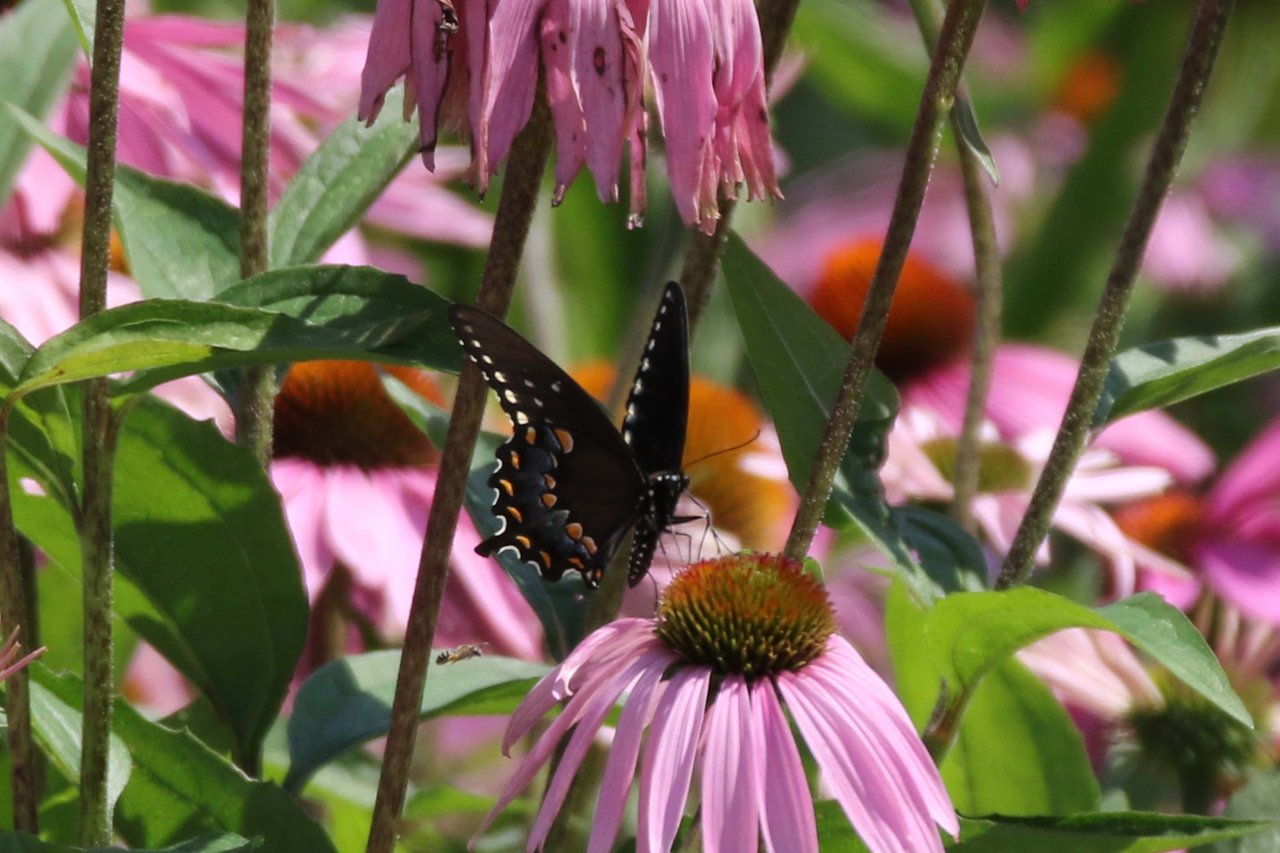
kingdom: Animalia
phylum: Arthropoda
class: Insecta
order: Lepidoptera
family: Papilionidae
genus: Pterourus
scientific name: Pterourus troilus
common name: Spicebush Swallowtail
